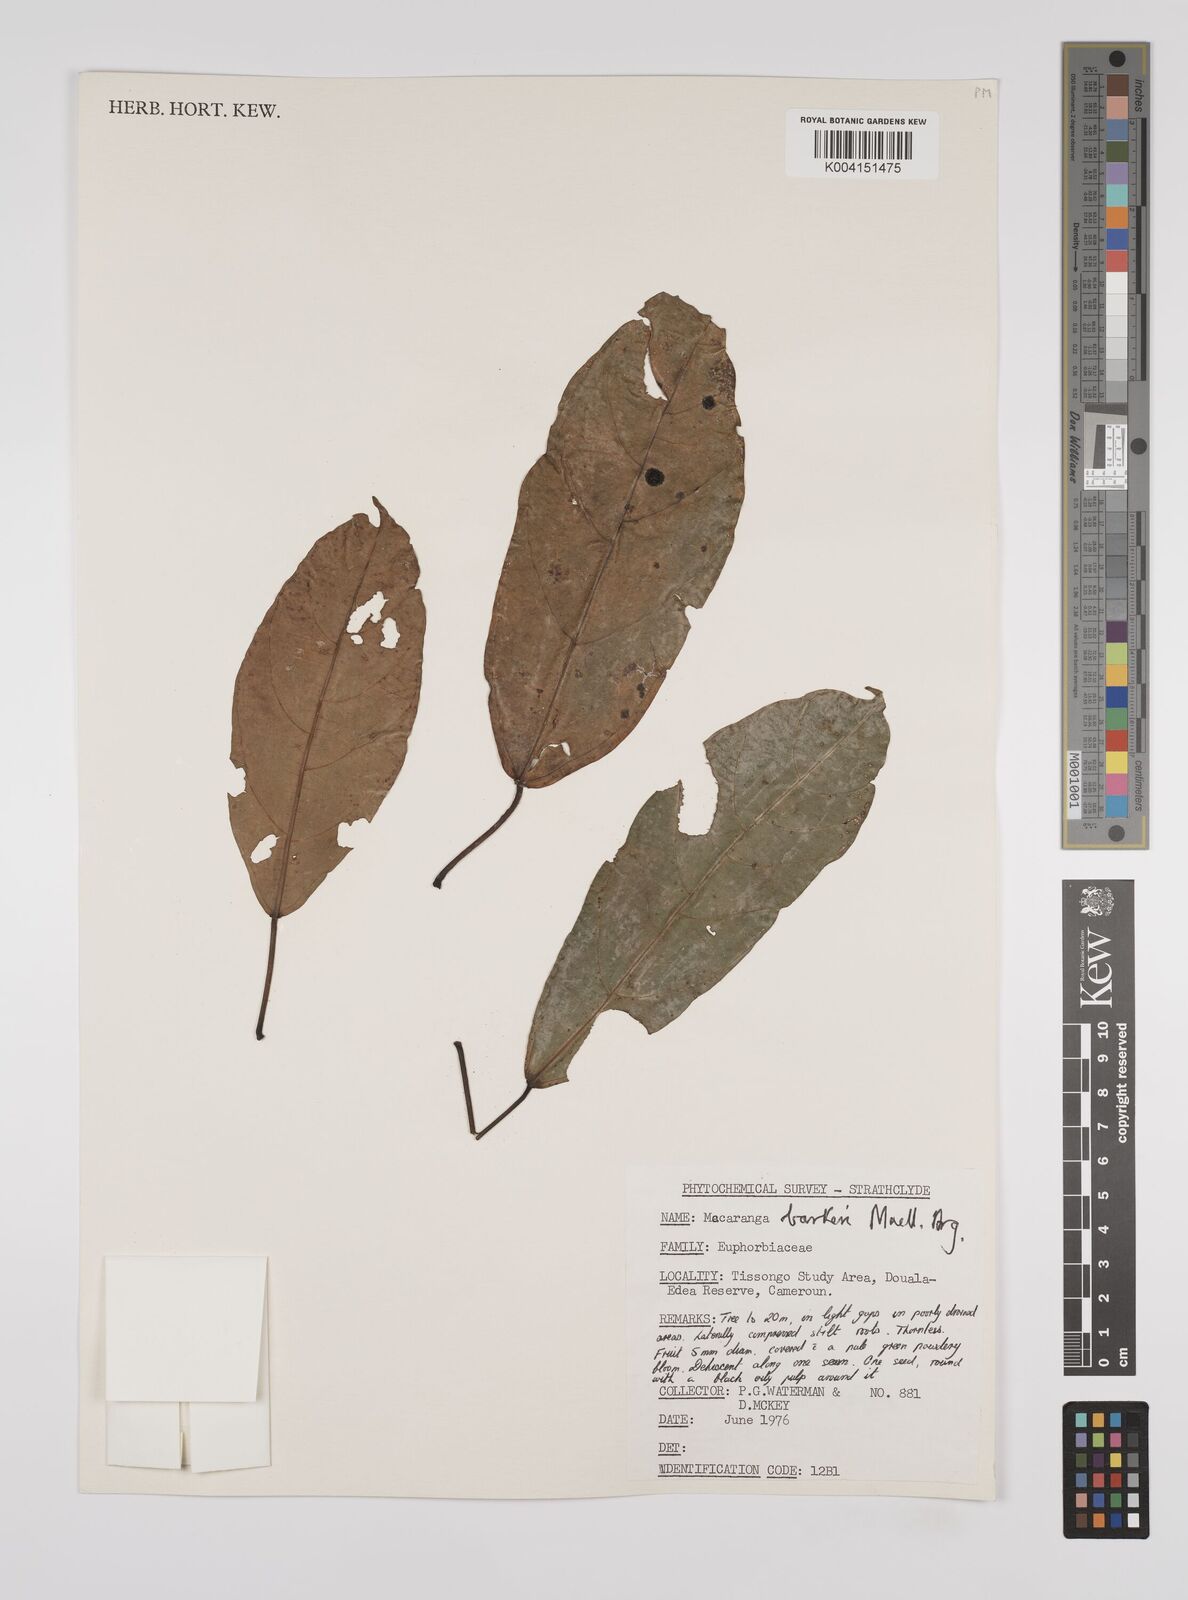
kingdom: Plantae
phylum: Tracheophyta
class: Magnoliopsida
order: Malpighiales
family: Euphorbiaceae
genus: Macaranga
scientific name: Macaranga barteri
